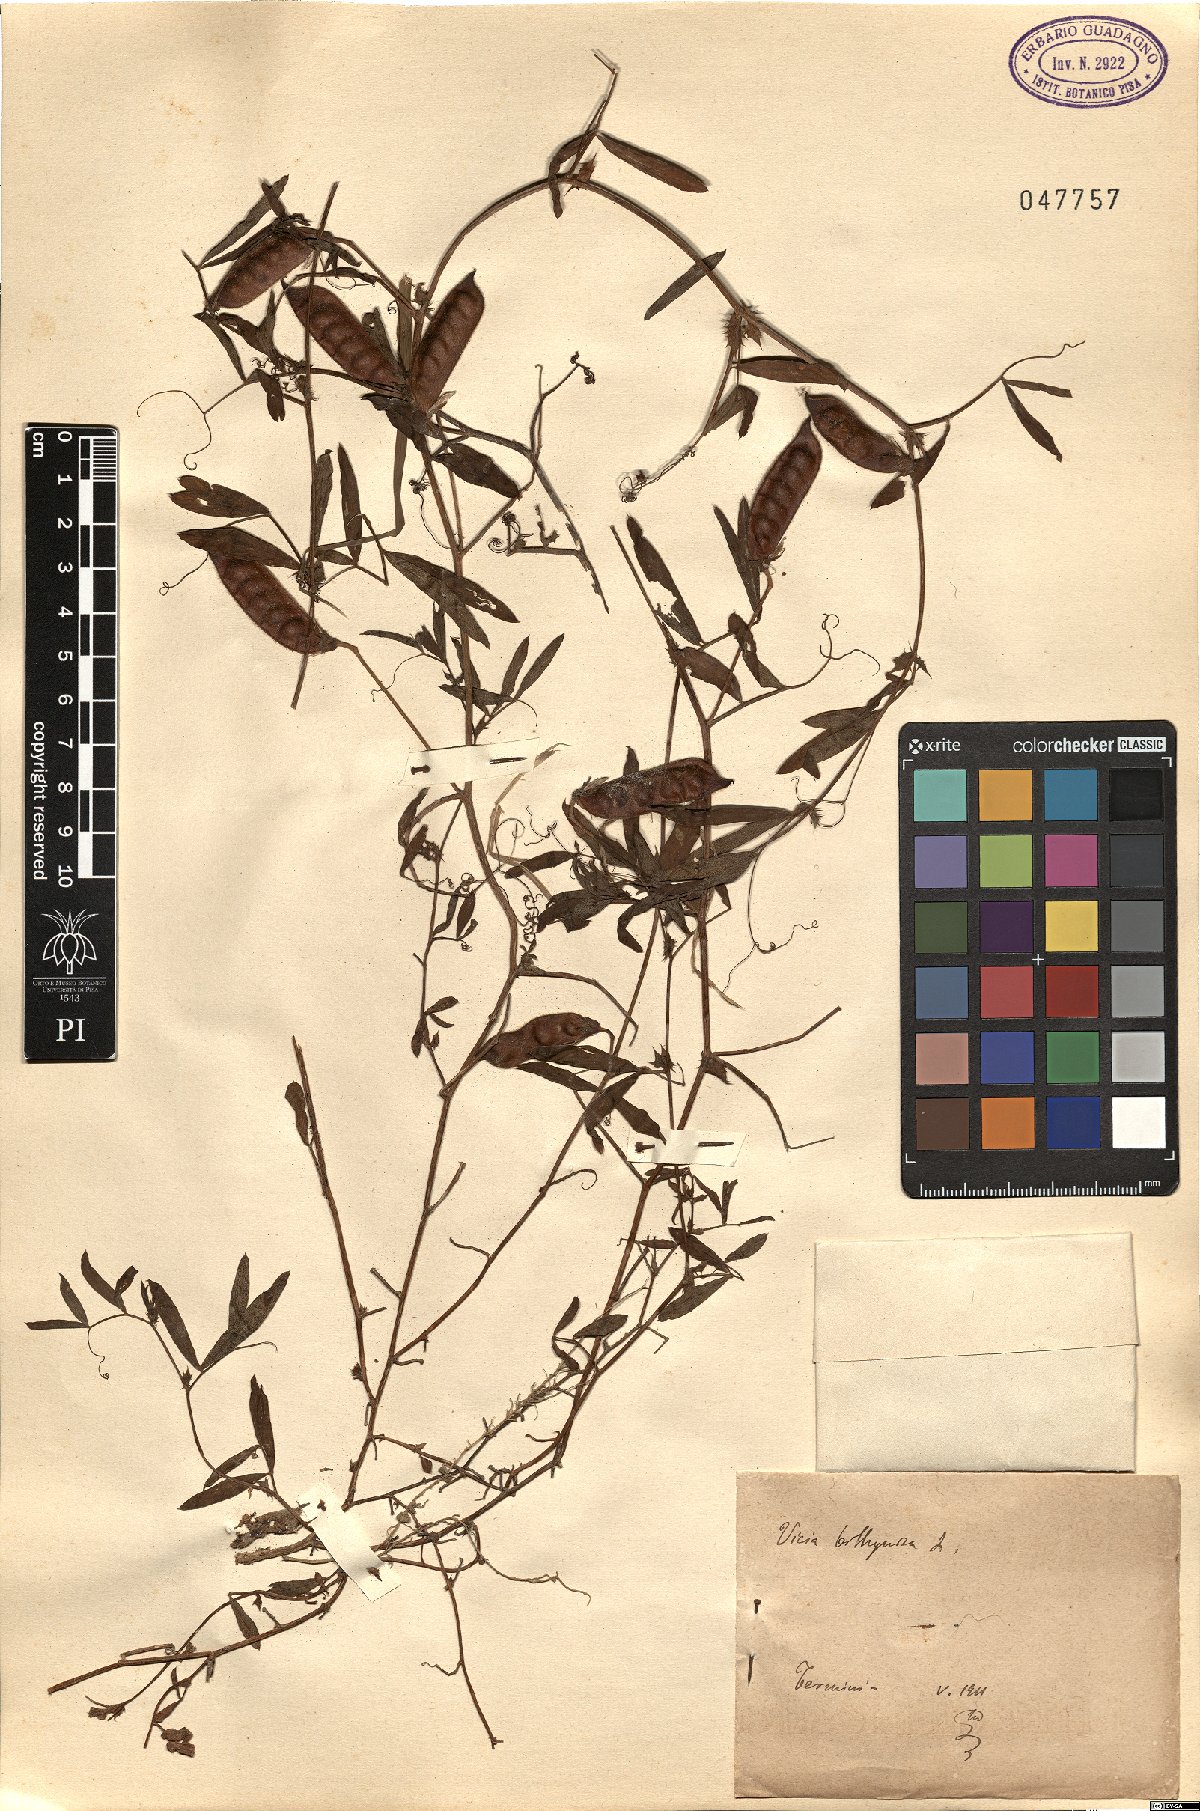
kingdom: Plantae
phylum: Tracheophyta
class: Magnoliopsida
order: Fabales
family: Fabaceae
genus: Vicia
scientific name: Vicia bithynica
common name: Bithynian vetch
